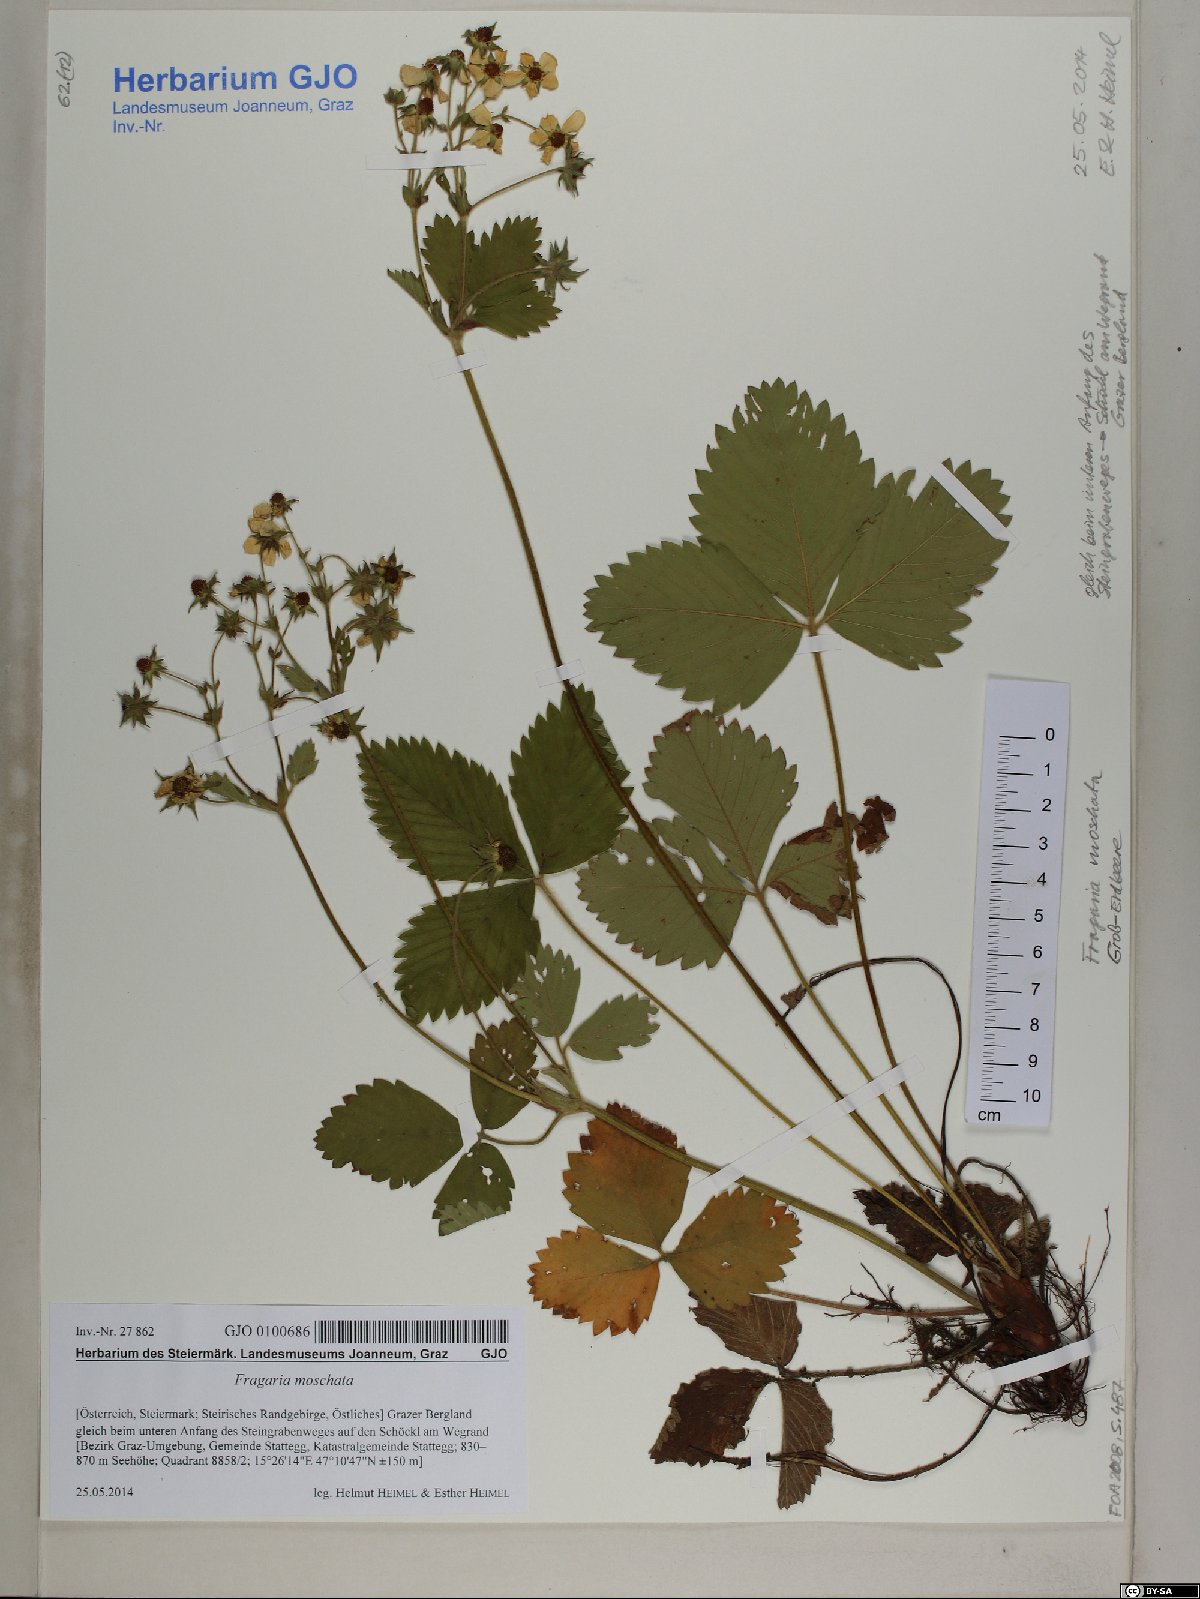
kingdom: Plantae
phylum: Tracheophyta
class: Magnoliopsida
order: Rosales
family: Rosaceae
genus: Fragaria
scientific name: Fragaria moschata
